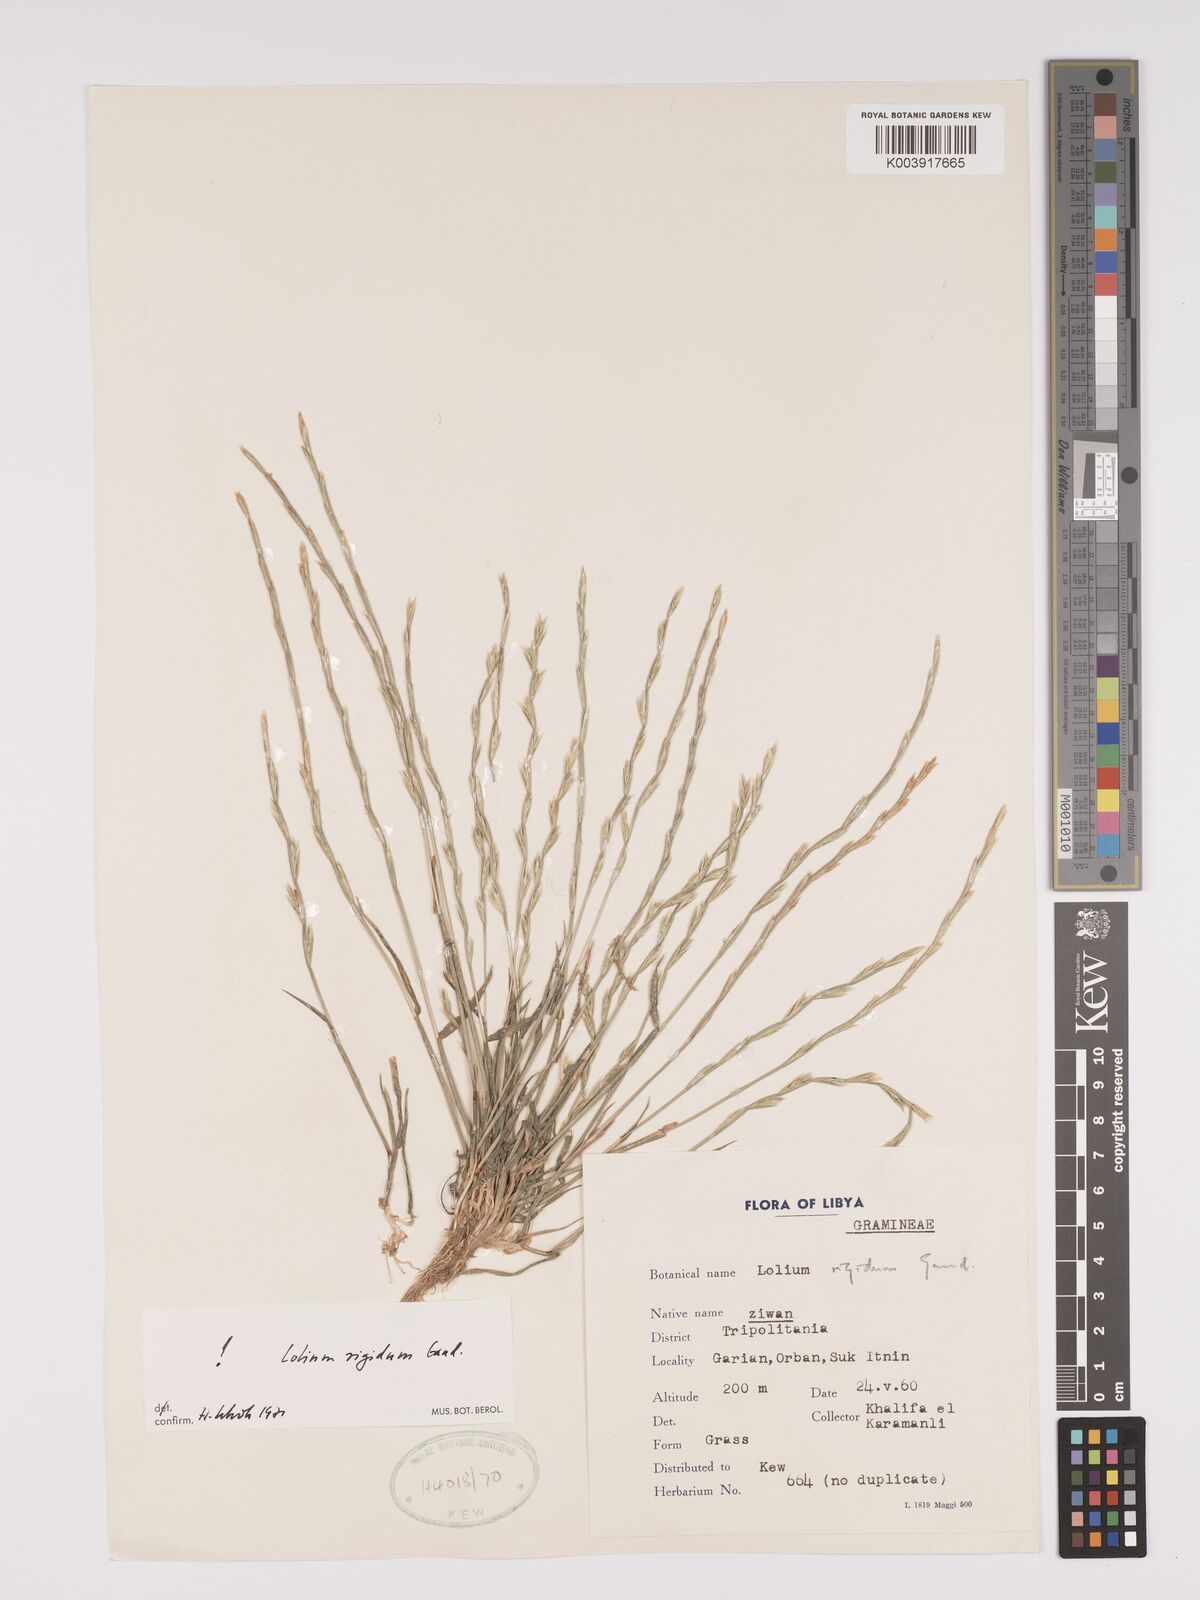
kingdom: Plantae
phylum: Tracheophyta
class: Liliopsida
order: Poales
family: Poaceae
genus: Lolium
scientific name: Lolium rigidum
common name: Wimmera ryegrass
